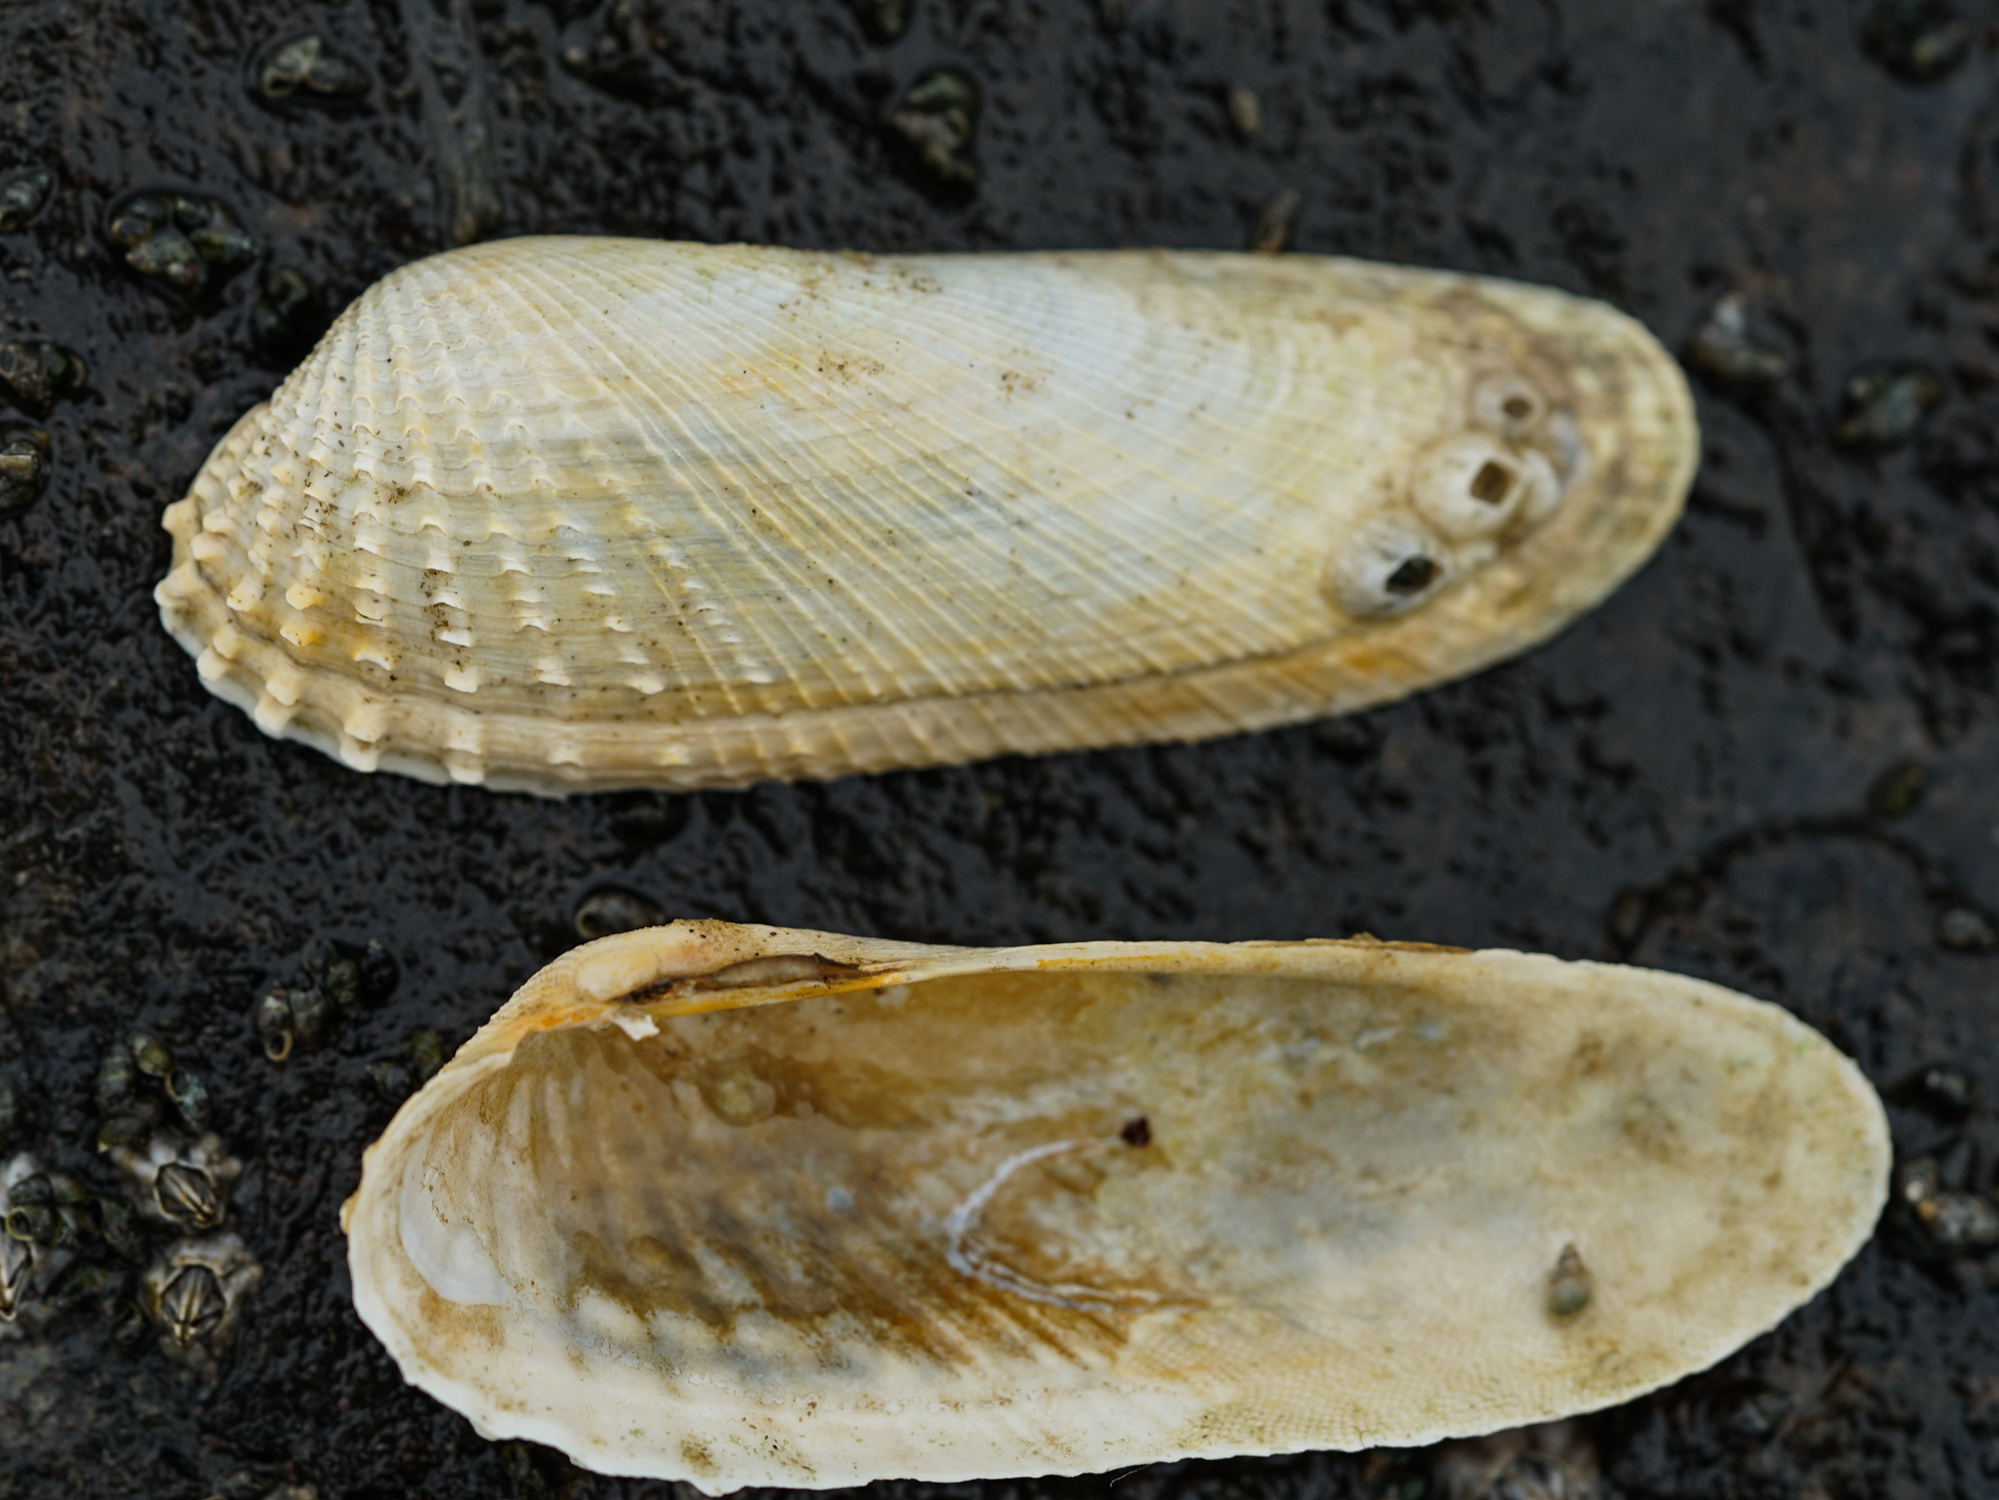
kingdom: Animalia
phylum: Mollusca
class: Bivalvia
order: Venerida
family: Veneridae
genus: Petricolaria
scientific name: Petricolaria pholadiformis
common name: American piddock
